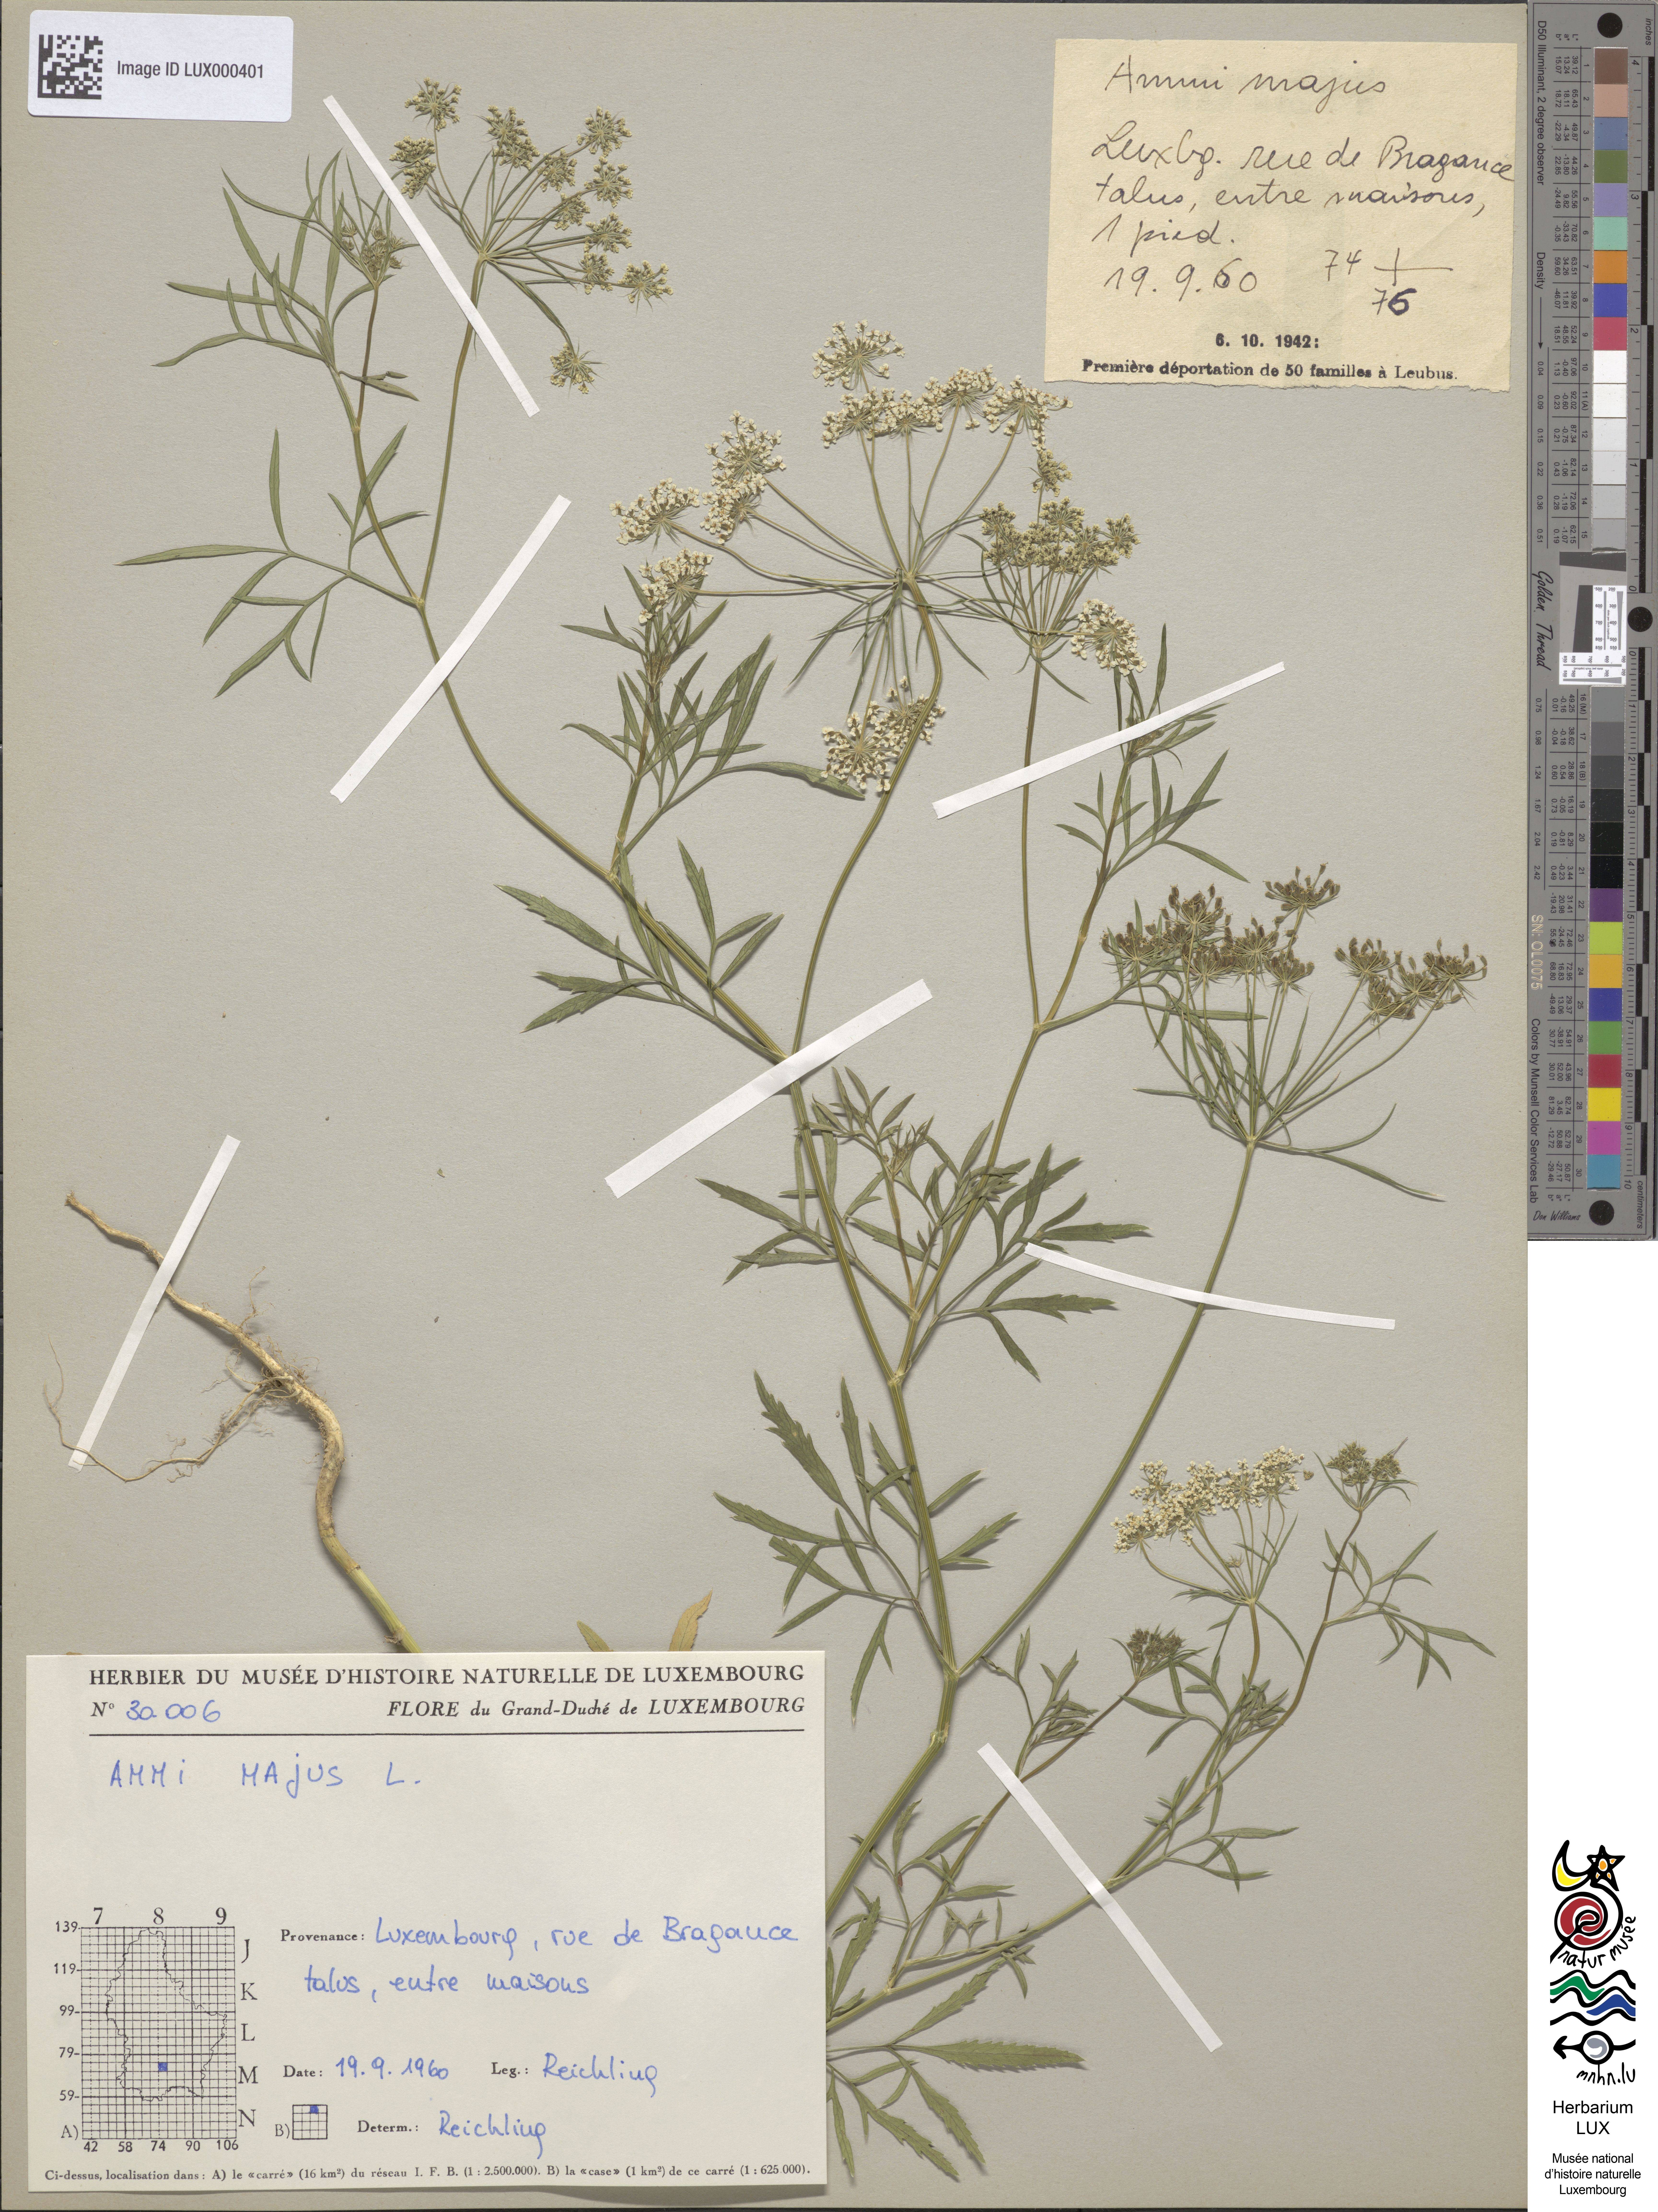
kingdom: Plantae
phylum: Tracheophyta
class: Magnoliopsida
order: Apiales
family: Apiaceae
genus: Ammi
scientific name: Ammi majus
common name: Bullwort
